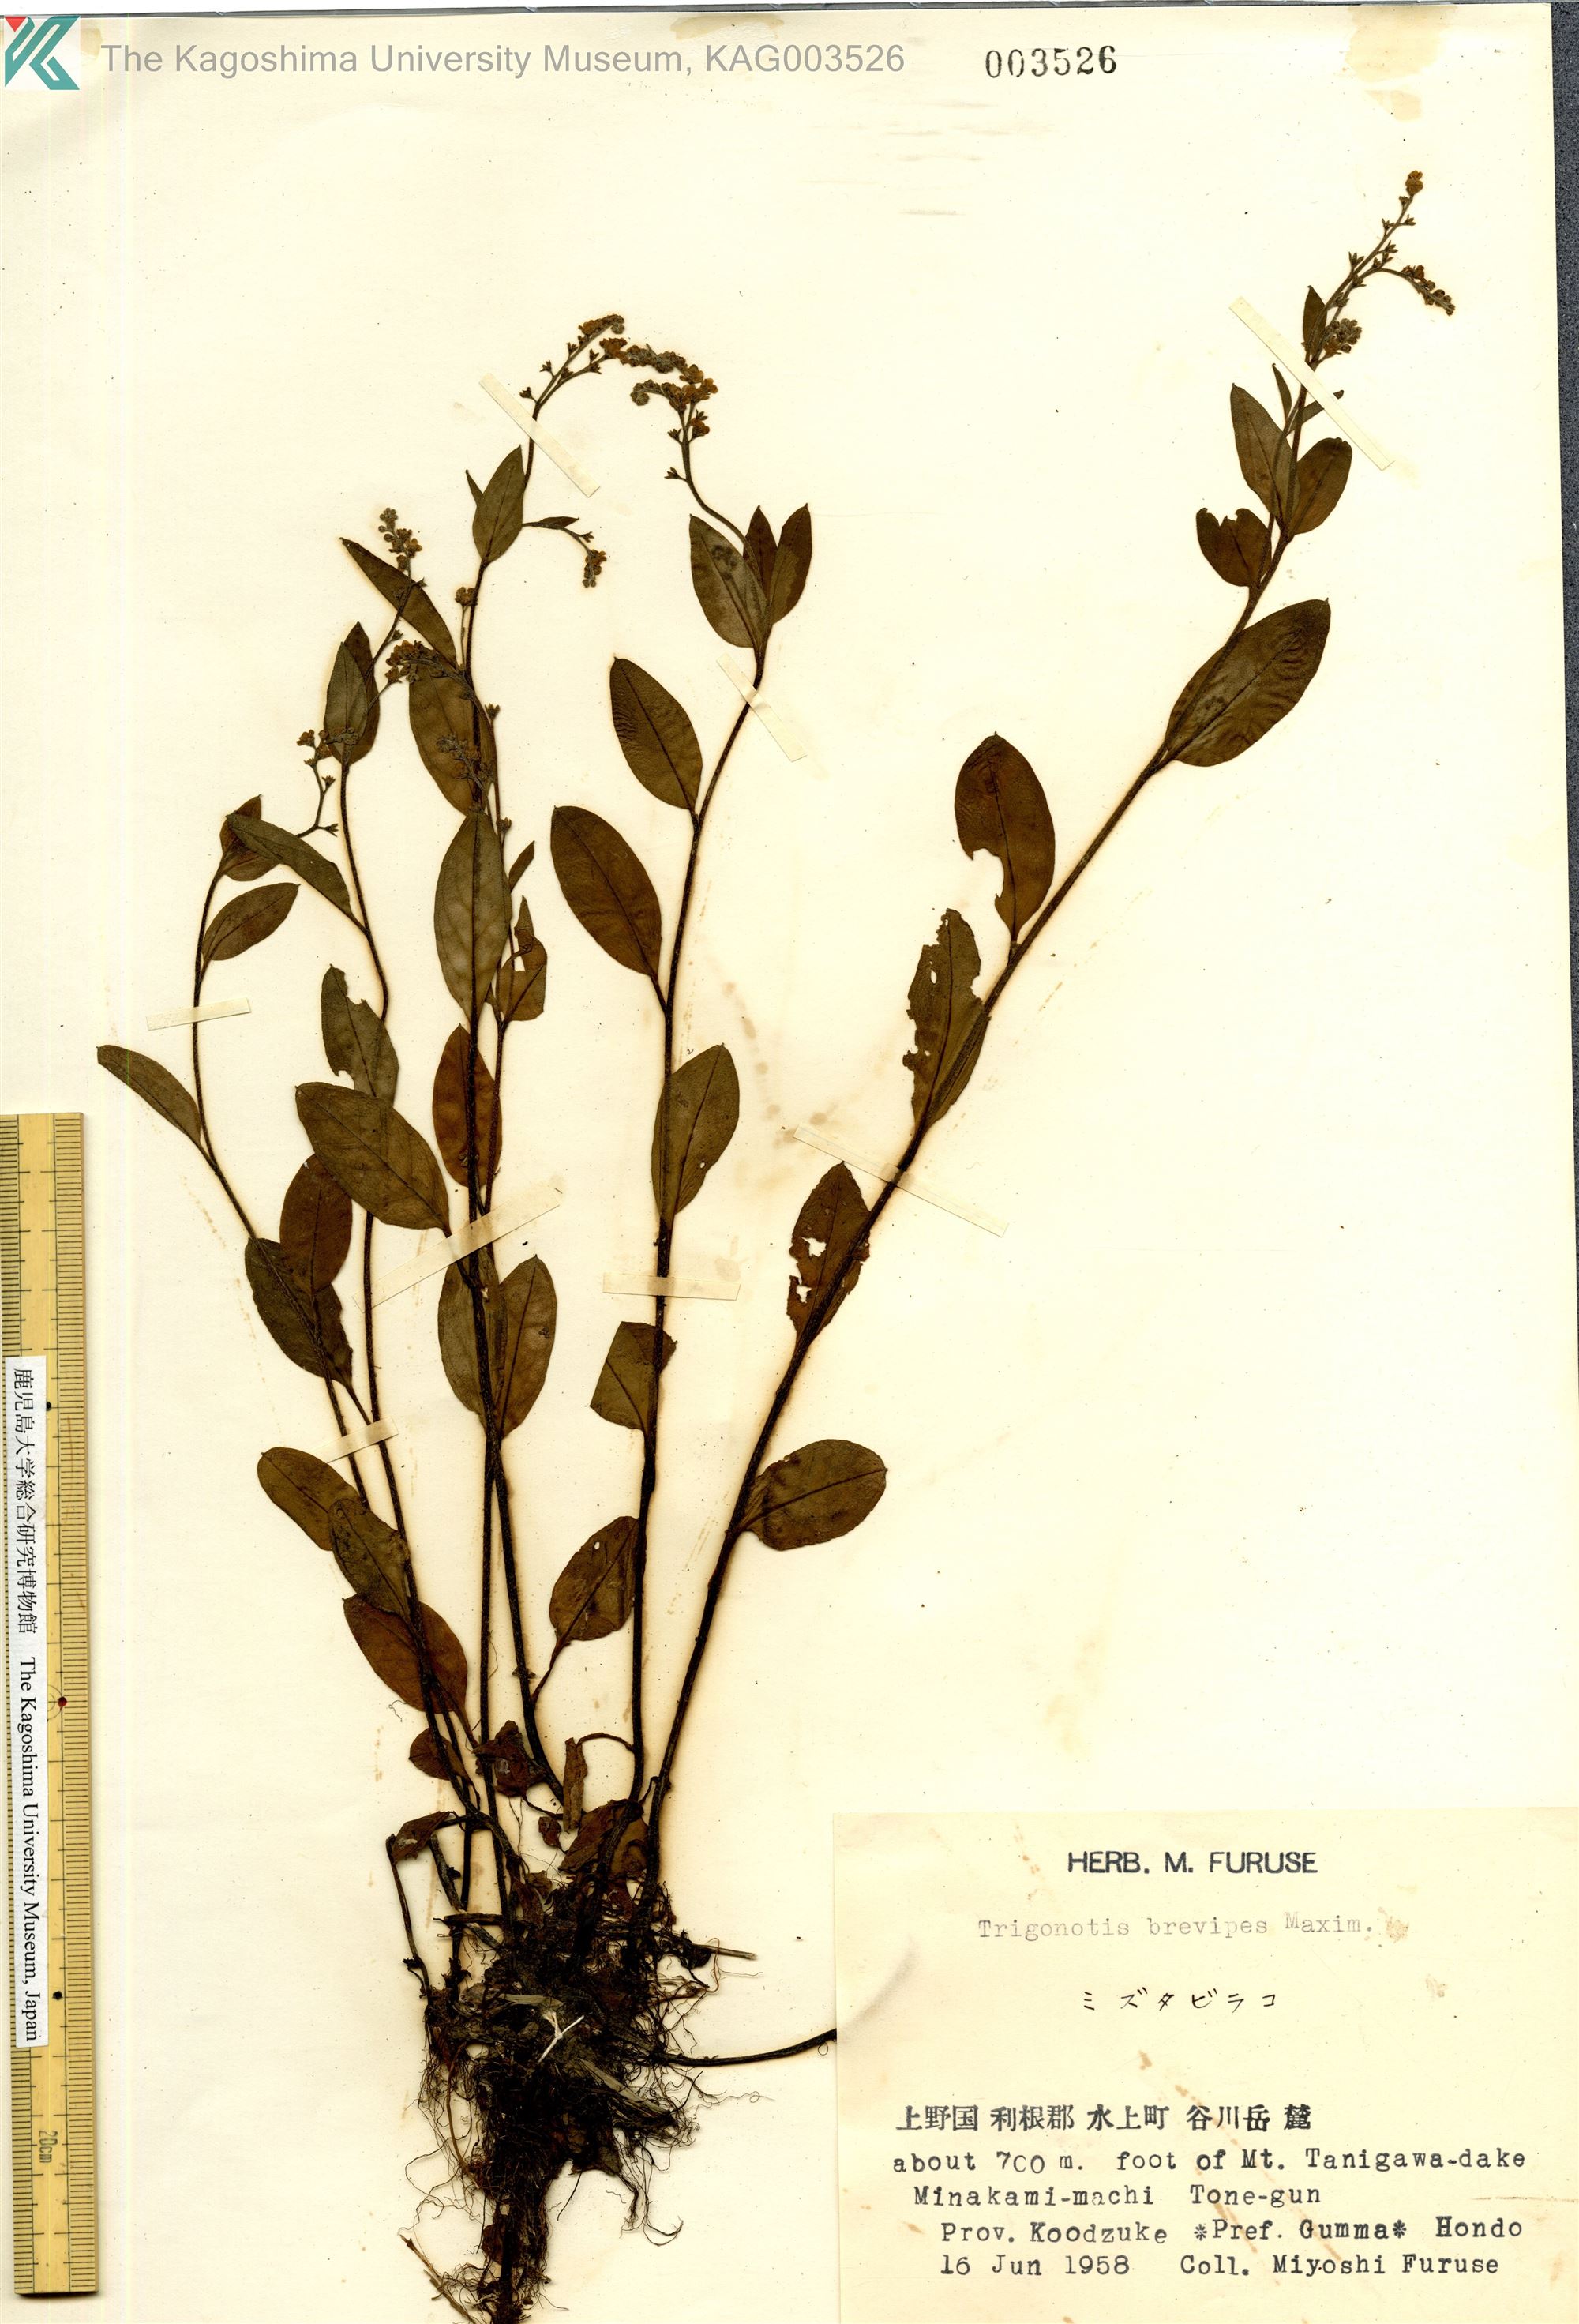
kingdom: Plantae
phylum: Tracheophyta
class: Magnoliopsida
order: Boraginales
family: Boraginaceae
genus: Trigonotis
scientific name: Trigonotis brevipes
